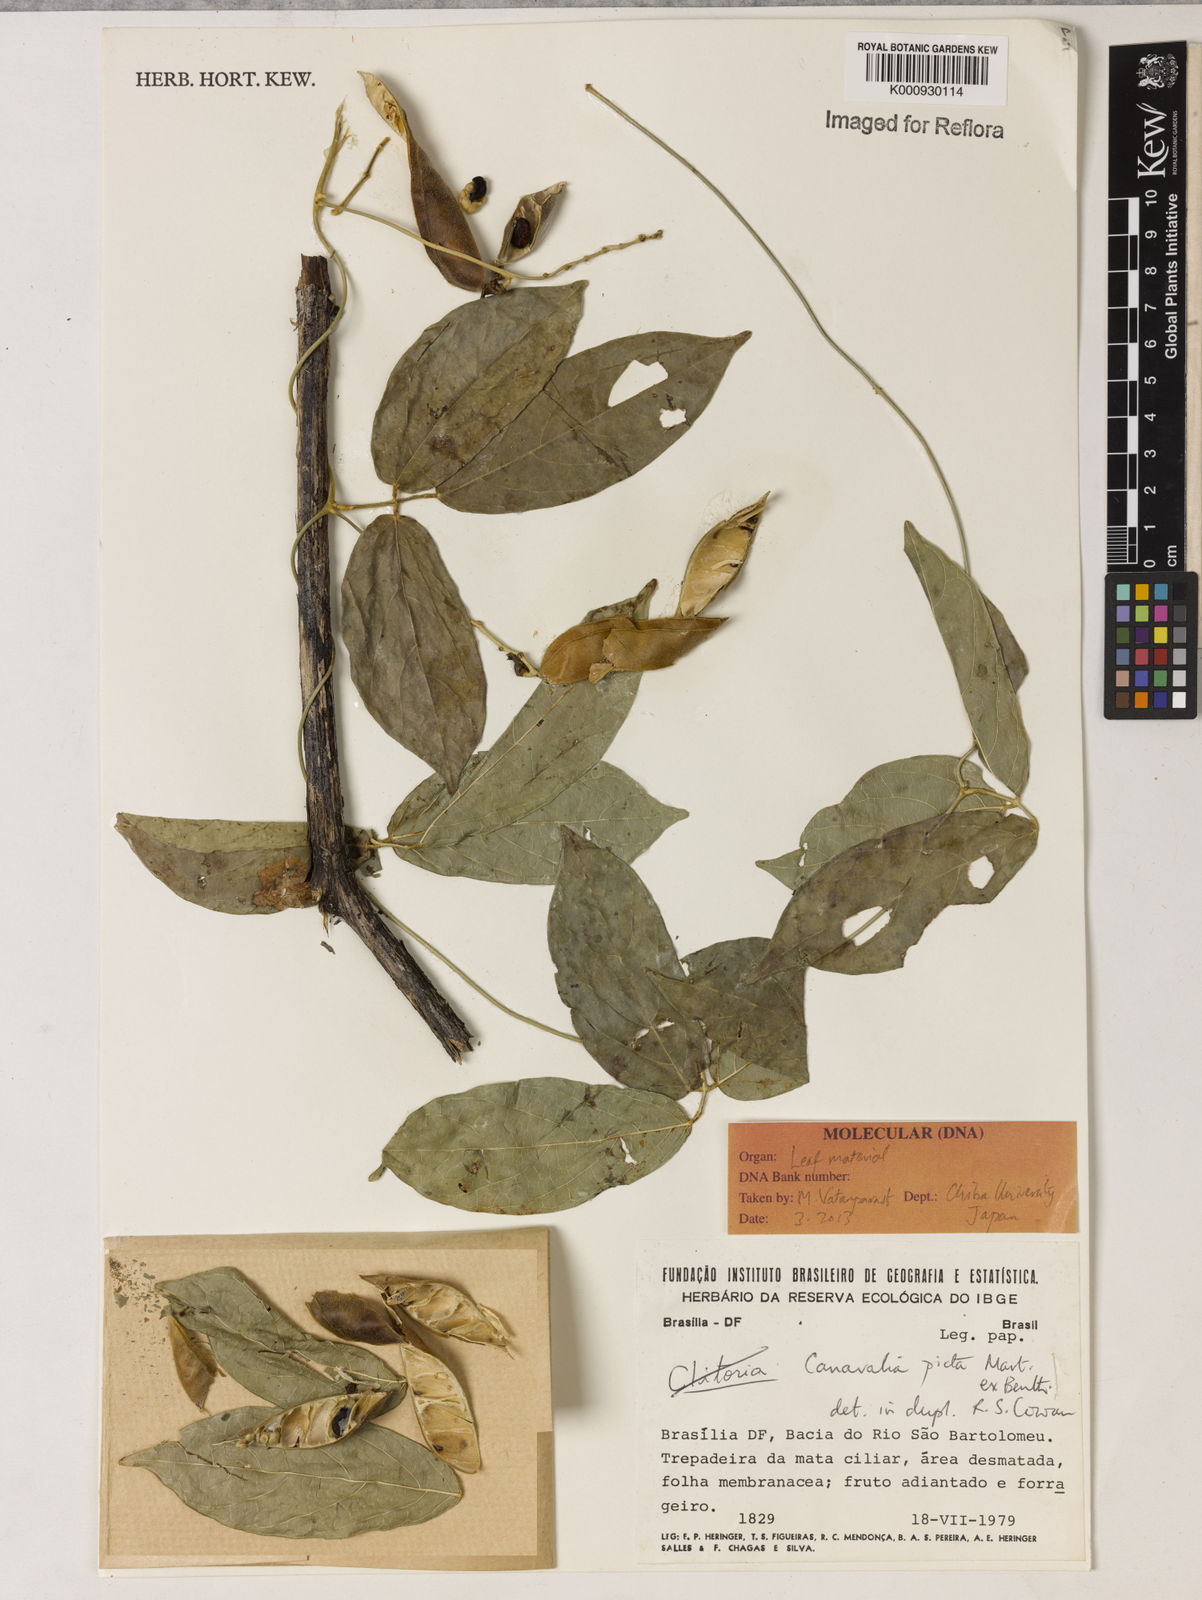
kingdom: Plantae
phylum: Tracheophyta
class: Magnoliopsida
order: Fabales
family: Fabaceae
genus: Canavalia
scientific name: Canavalia picta
